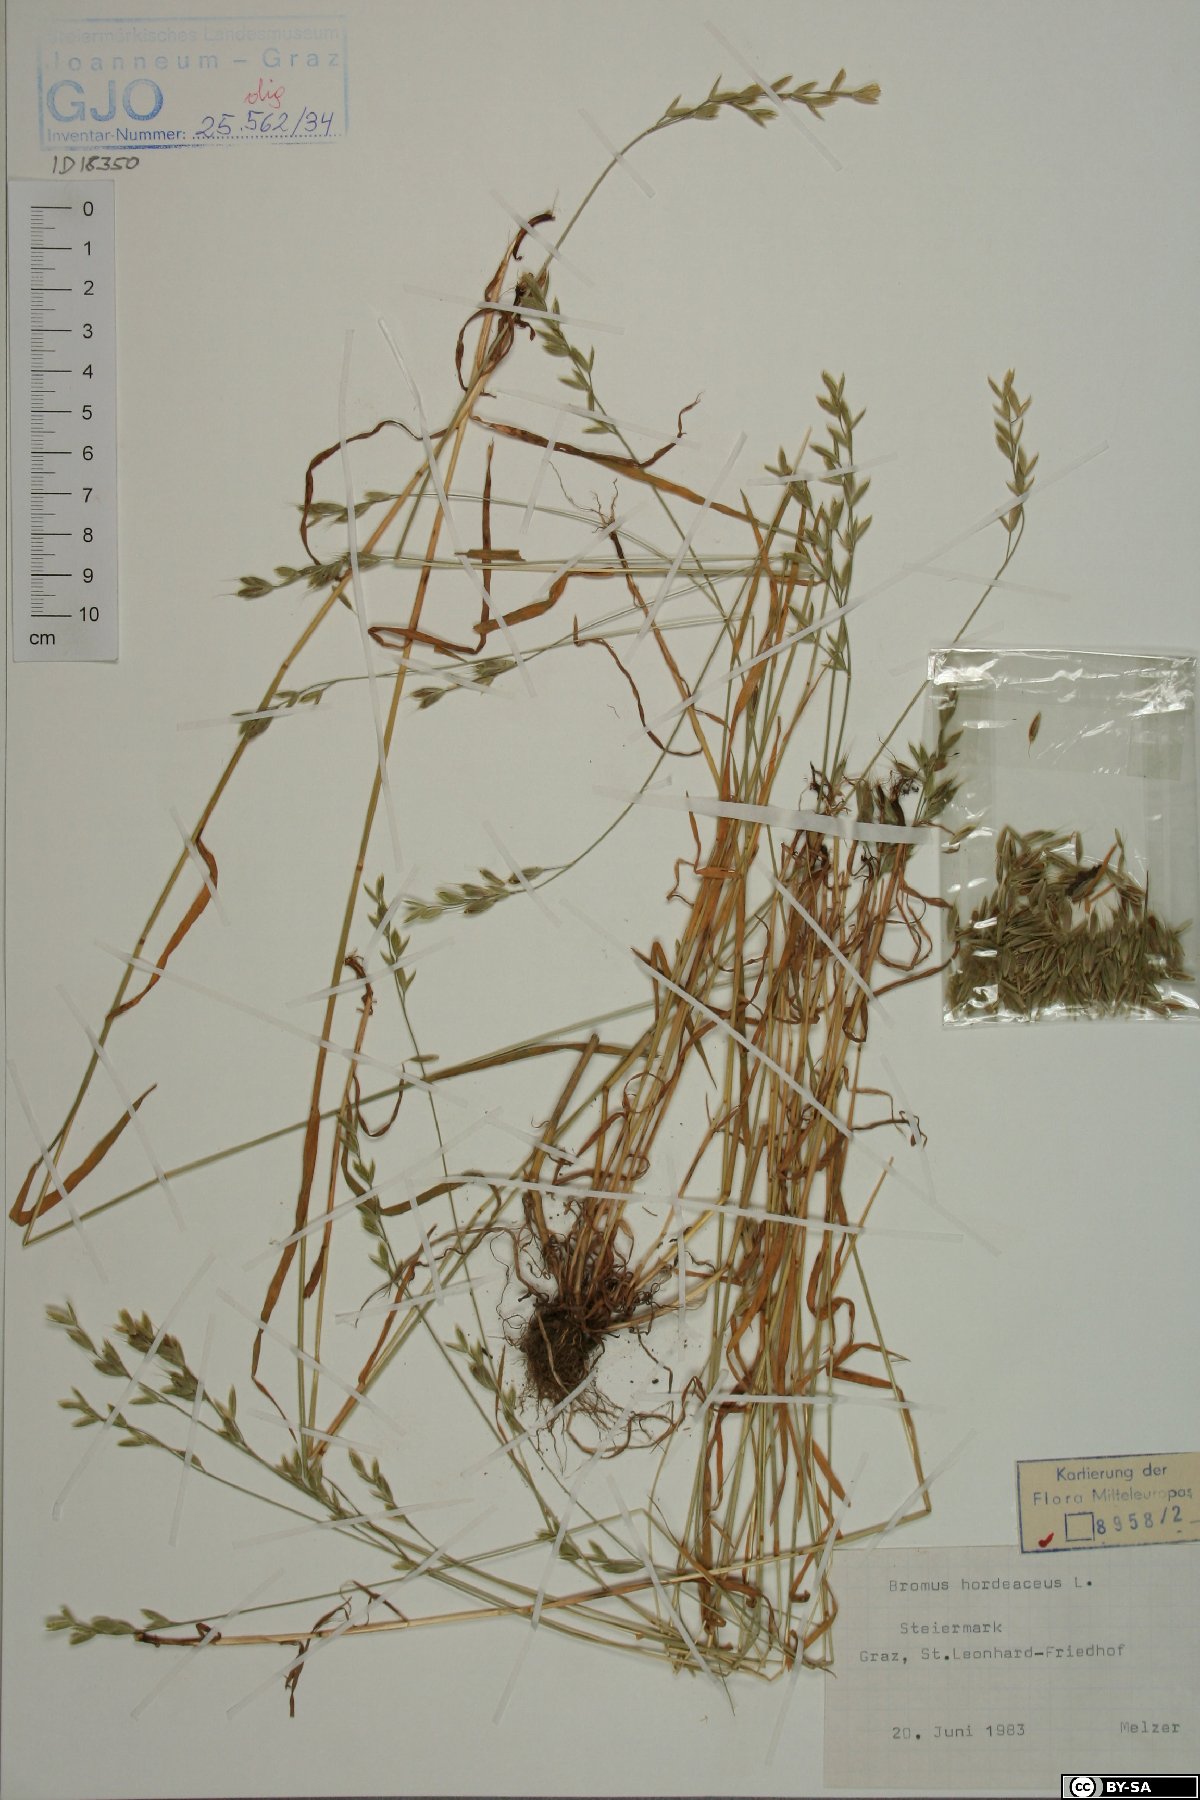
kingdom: Plantae
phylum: Tracheophyta
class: Liliopsida
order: Poales
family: Poaceae
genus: Bromus
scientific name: Bromus hordeaceus
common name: Soft brome
